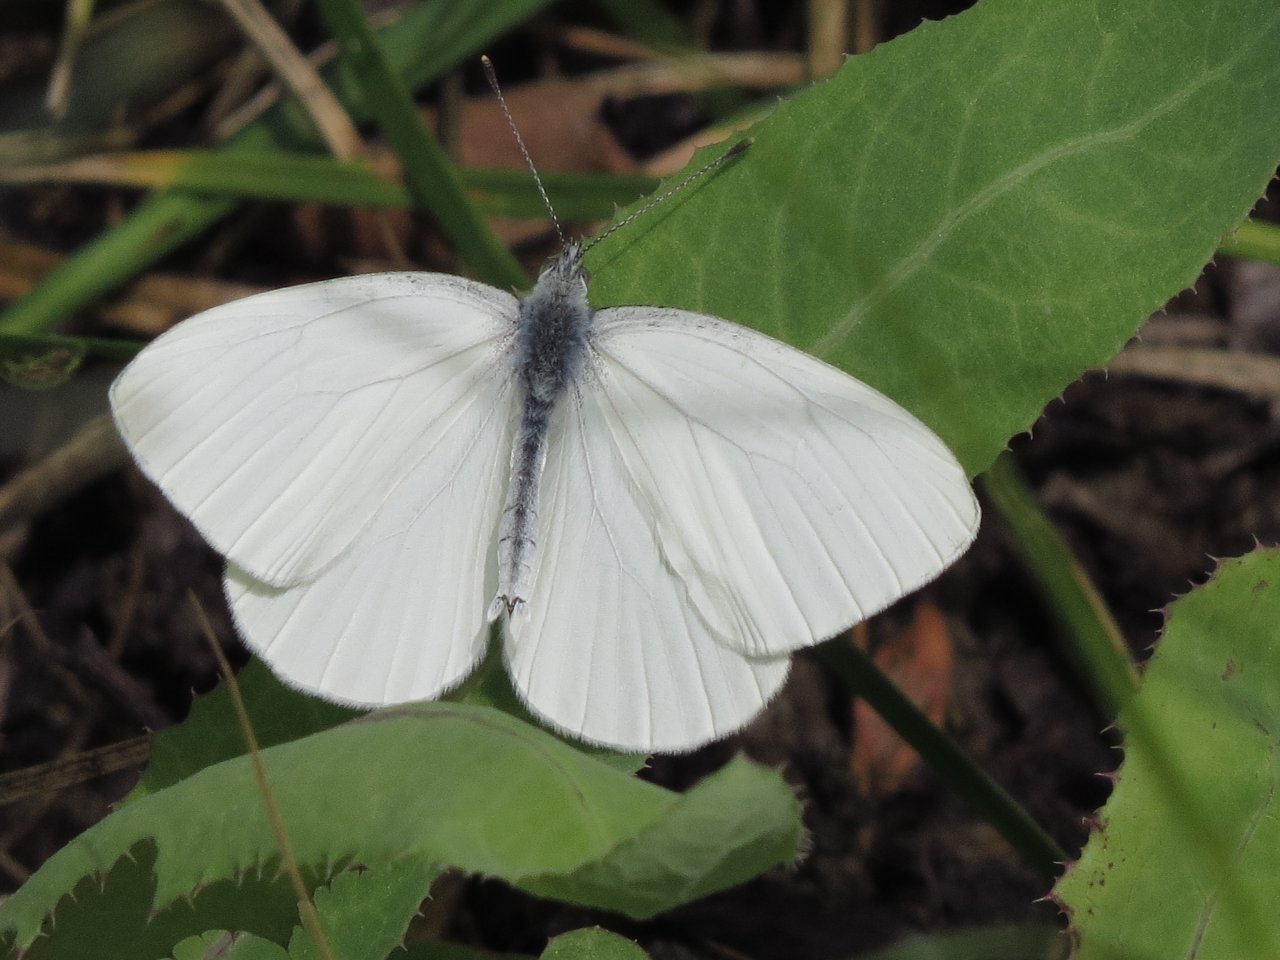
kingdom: Animalia
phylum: Arthropoda
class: Insecta
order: Lepidoptera
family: Pieridae
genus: Pieris
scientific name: Pieris oleracea
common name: Mustard White
